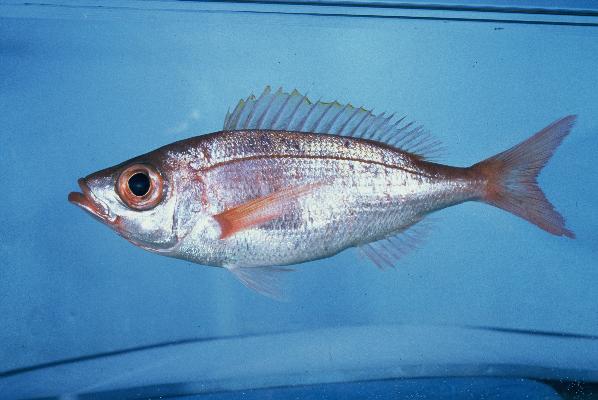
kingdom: Animalia
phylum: Chordata
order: Perciformes
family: Sparidae
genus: Spicara
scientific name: Spicara australis
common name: Picarel
